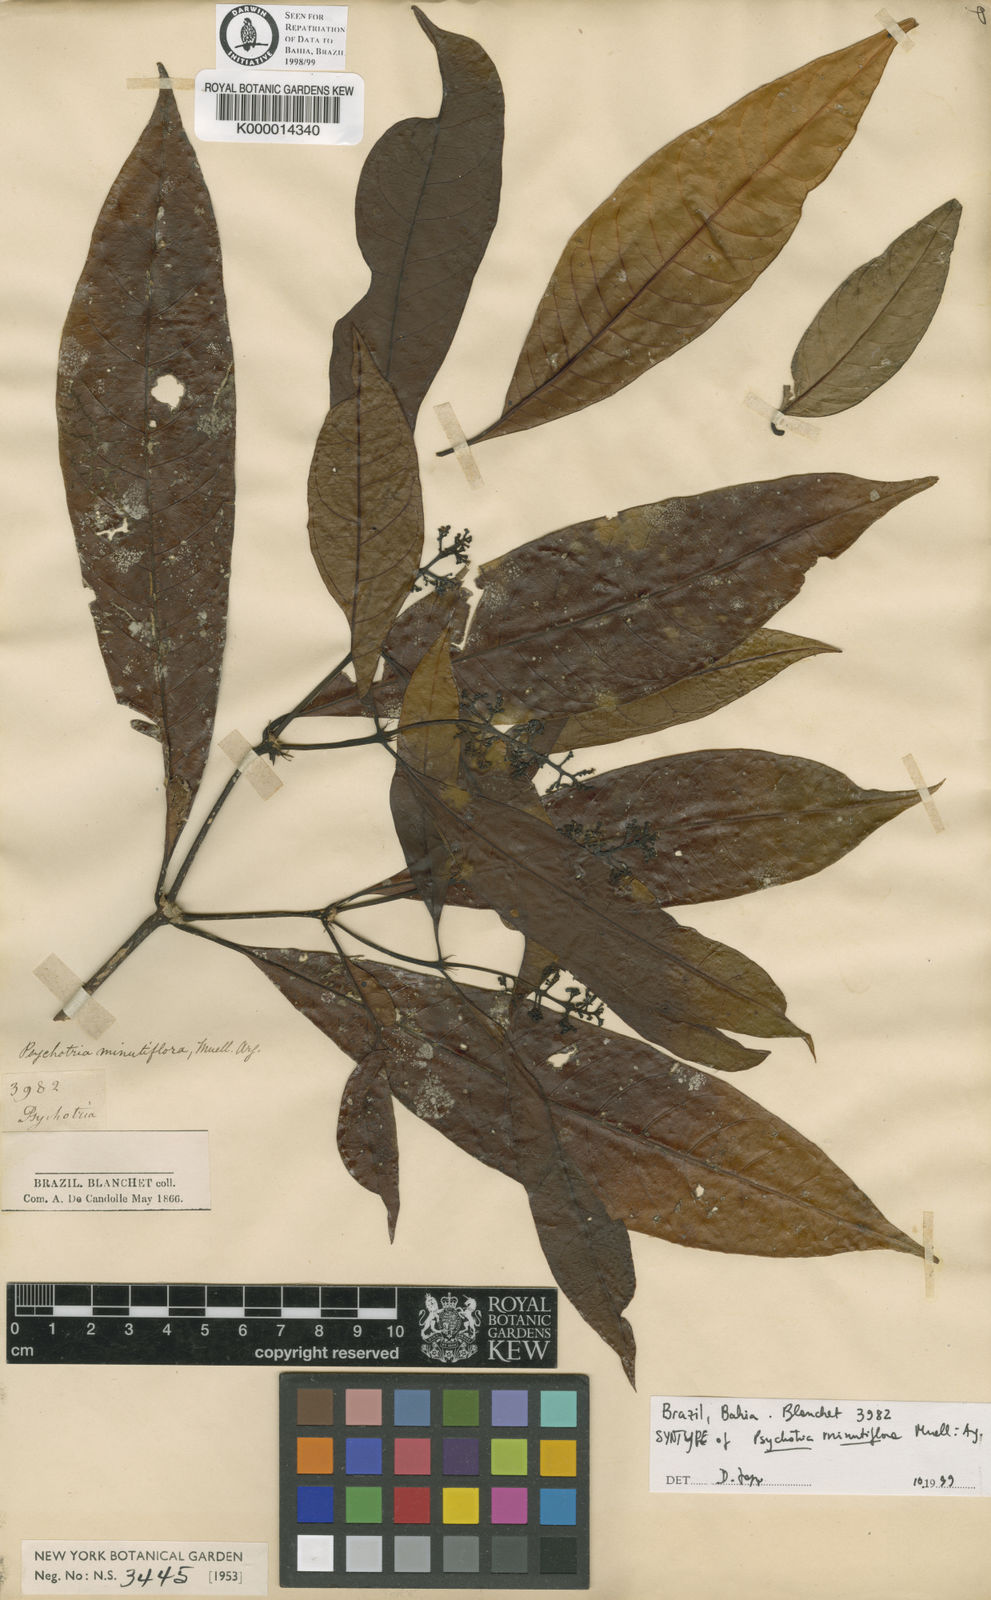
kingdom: Plantae
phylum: Tracheophyta
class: Magnoliopsida
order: Gentianales
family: Rubiaceae
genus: Psychotria
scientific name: Psychotria
